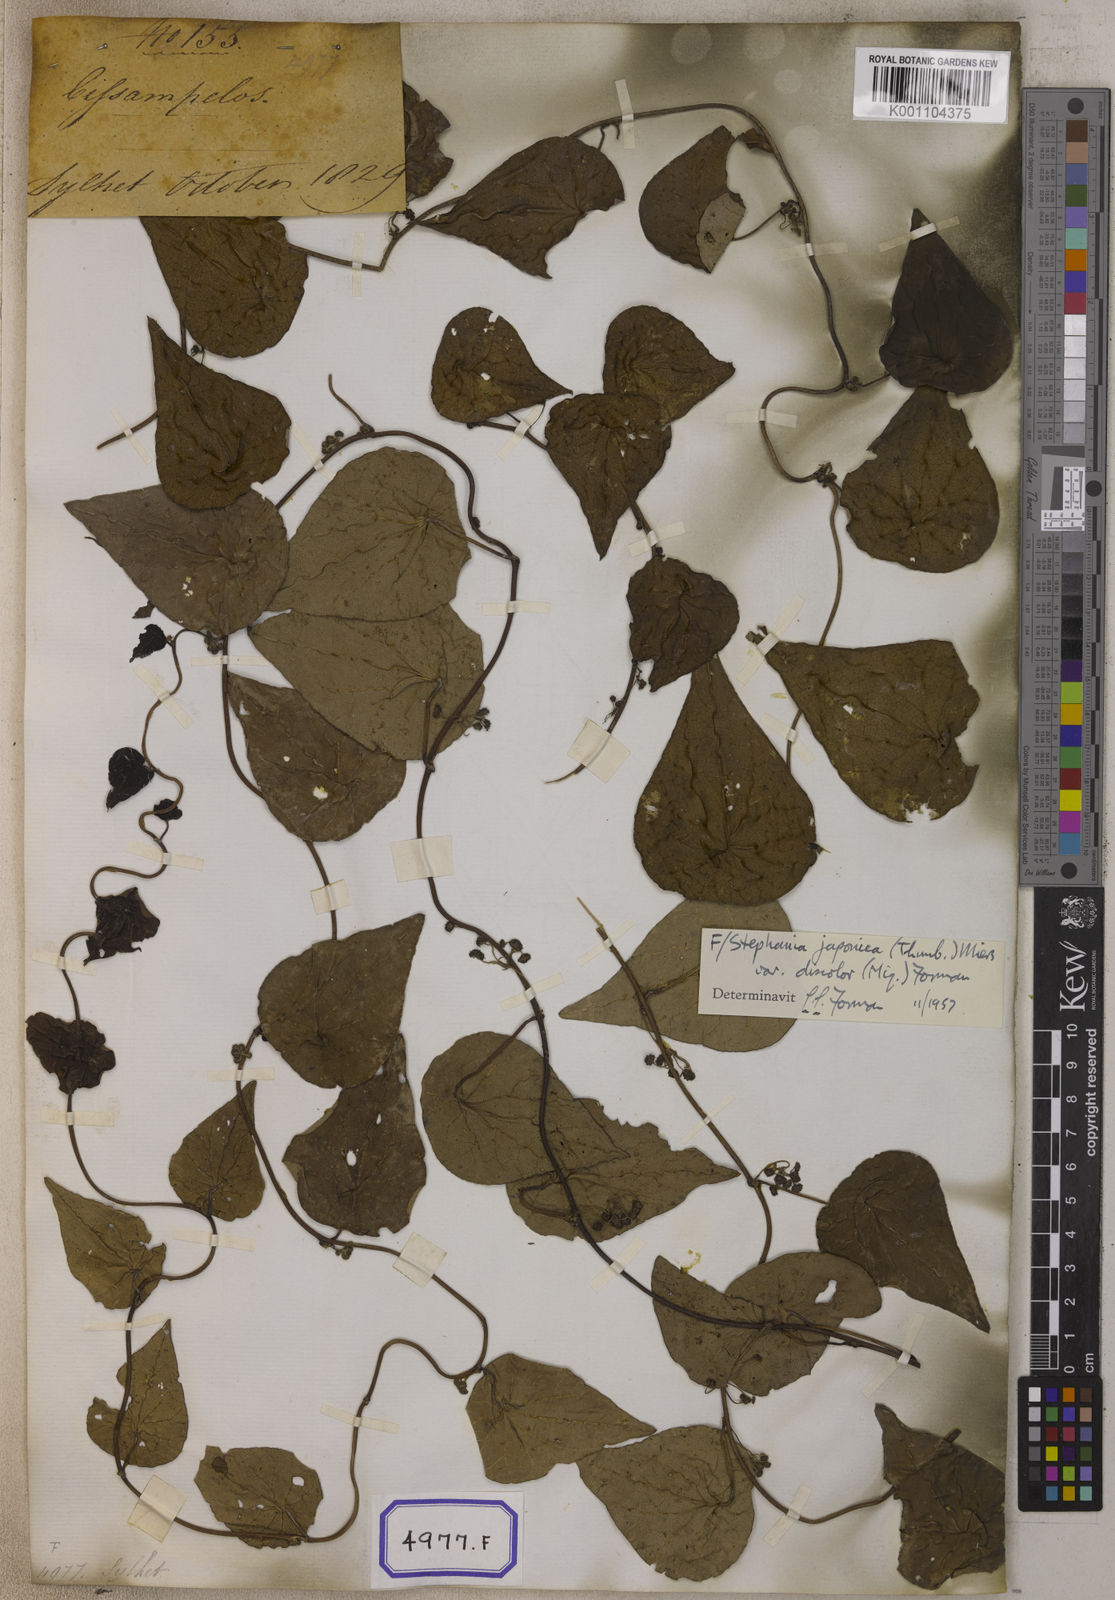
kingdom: Plantae
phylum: Tracheophyta
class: Magnoliopsida
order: Ranunculales
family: Menispermaceae
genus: Stephania
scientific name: Stephania japonica
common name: Snake vine
